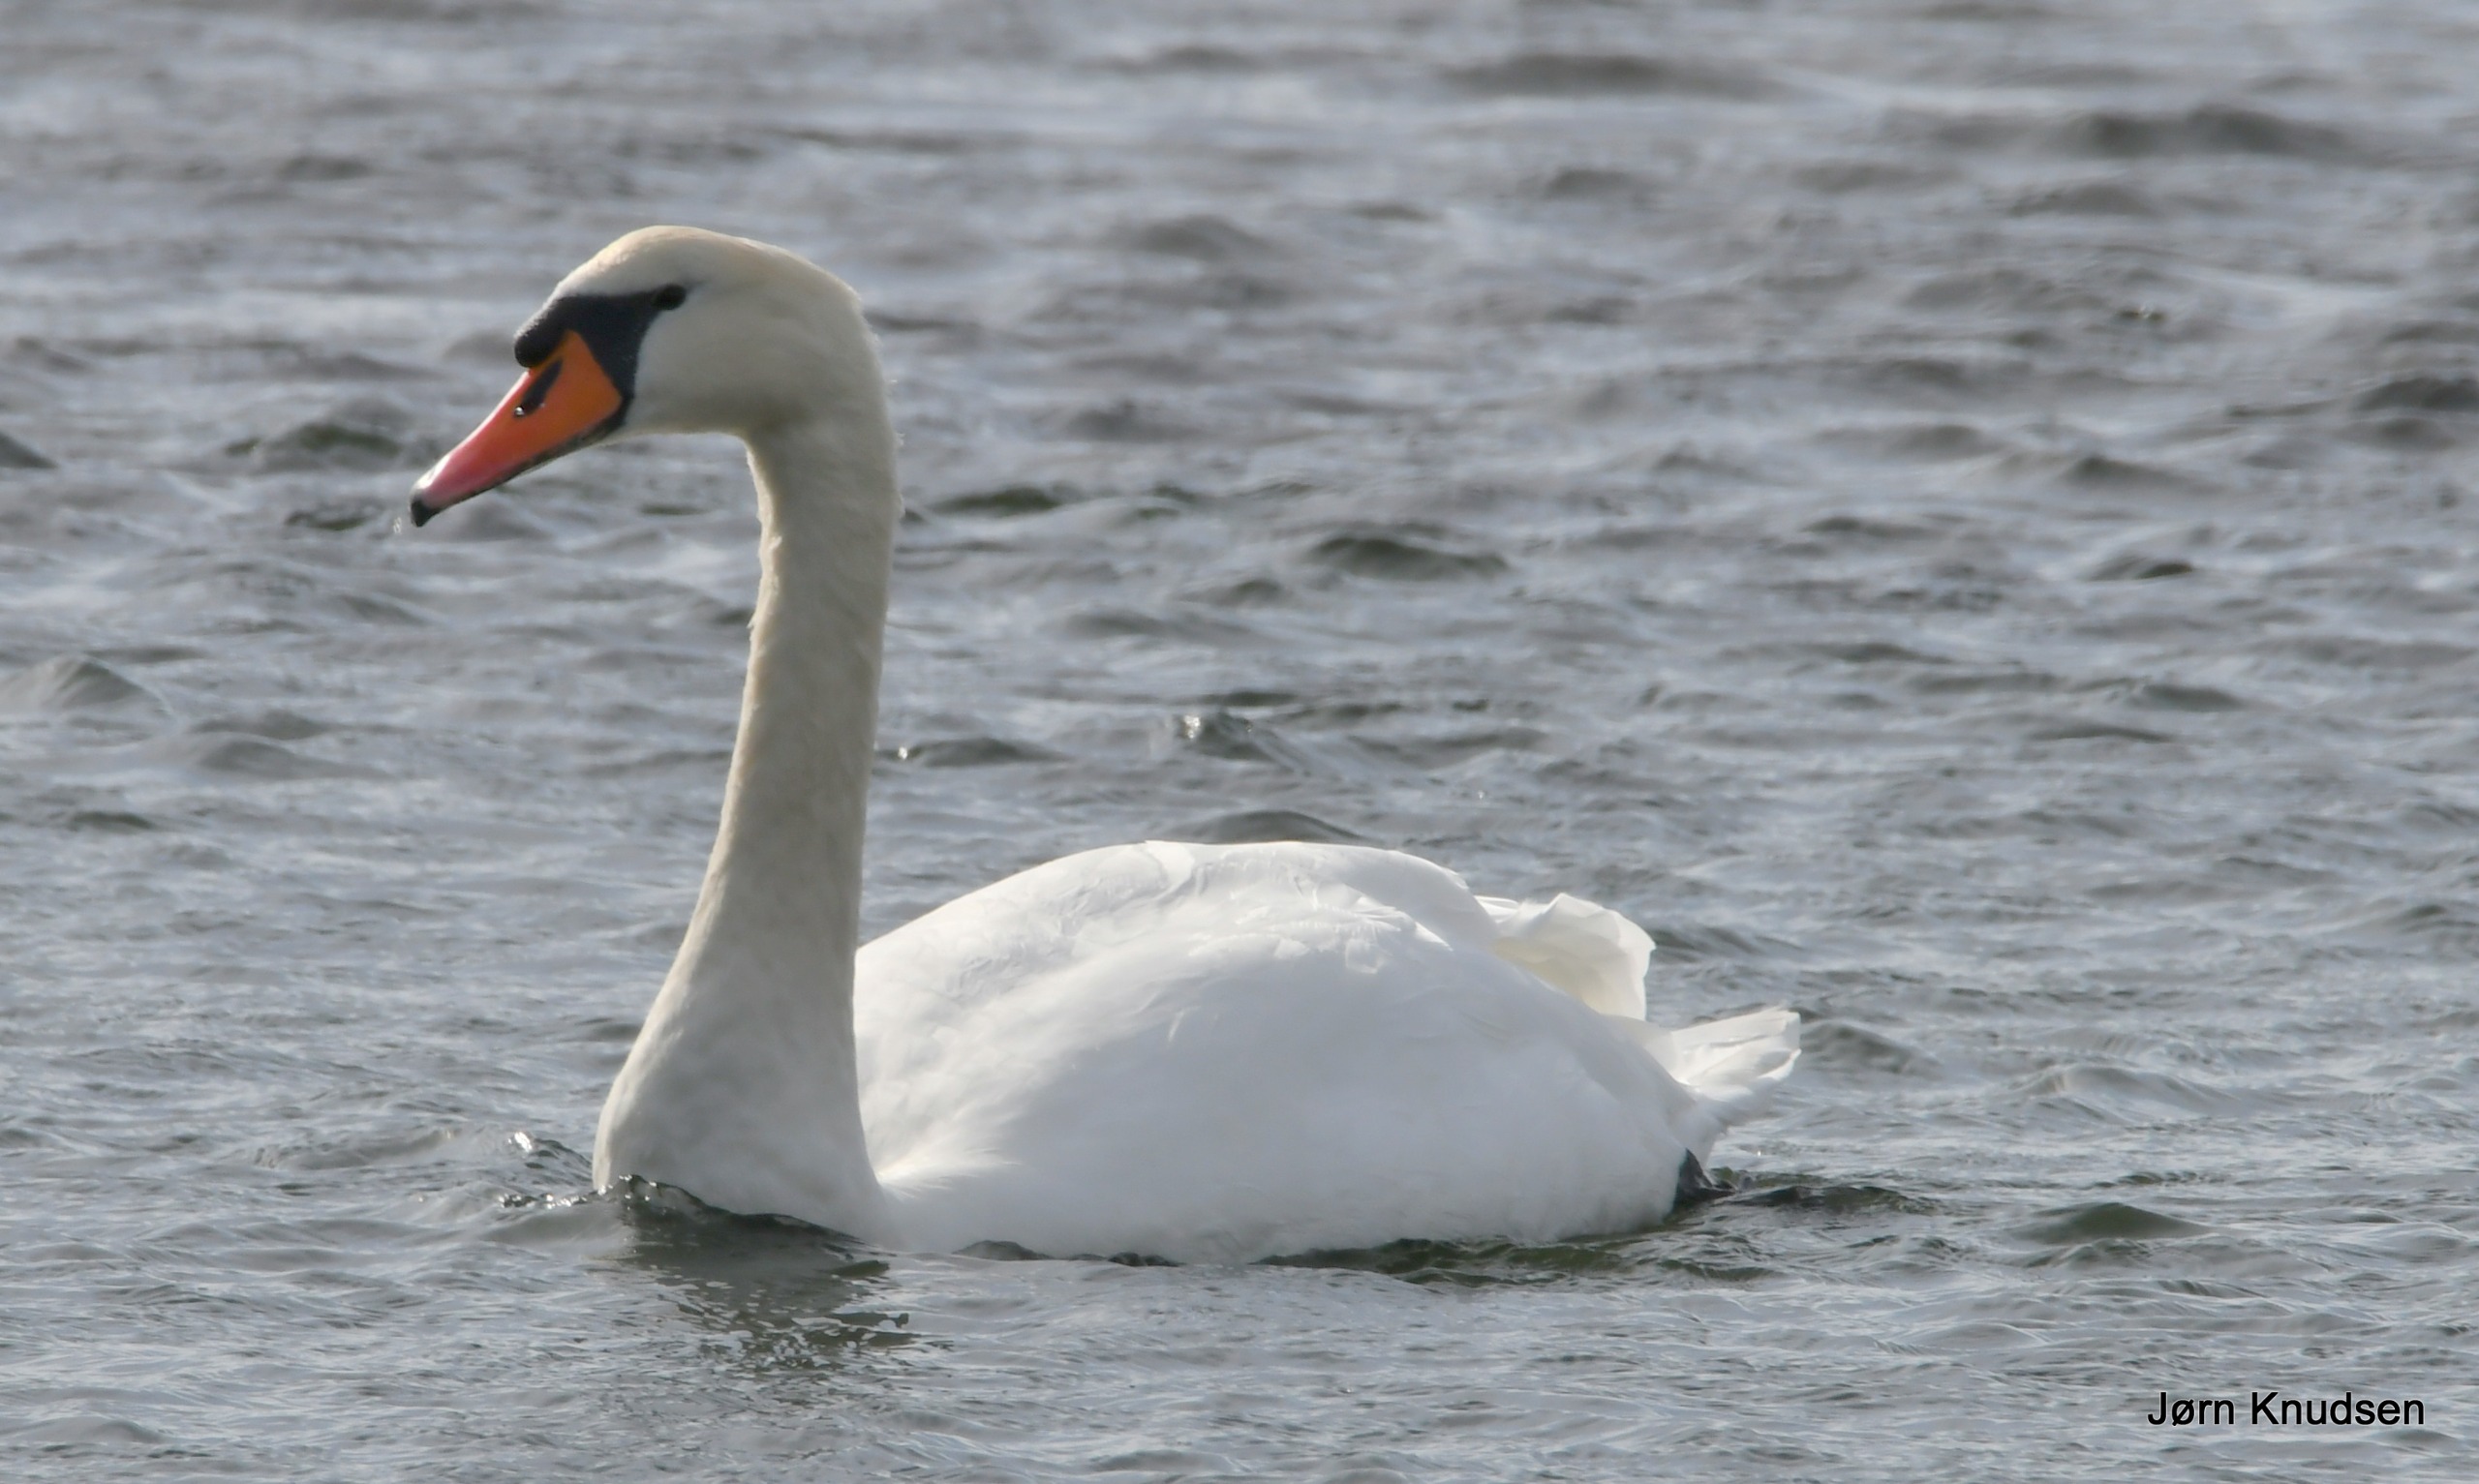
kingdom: Animalia
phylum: Chordata
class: Aves
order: Anseriformes
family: Anatidae
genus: Cygnus
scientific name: Cygnus olor
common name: Knopsvane
